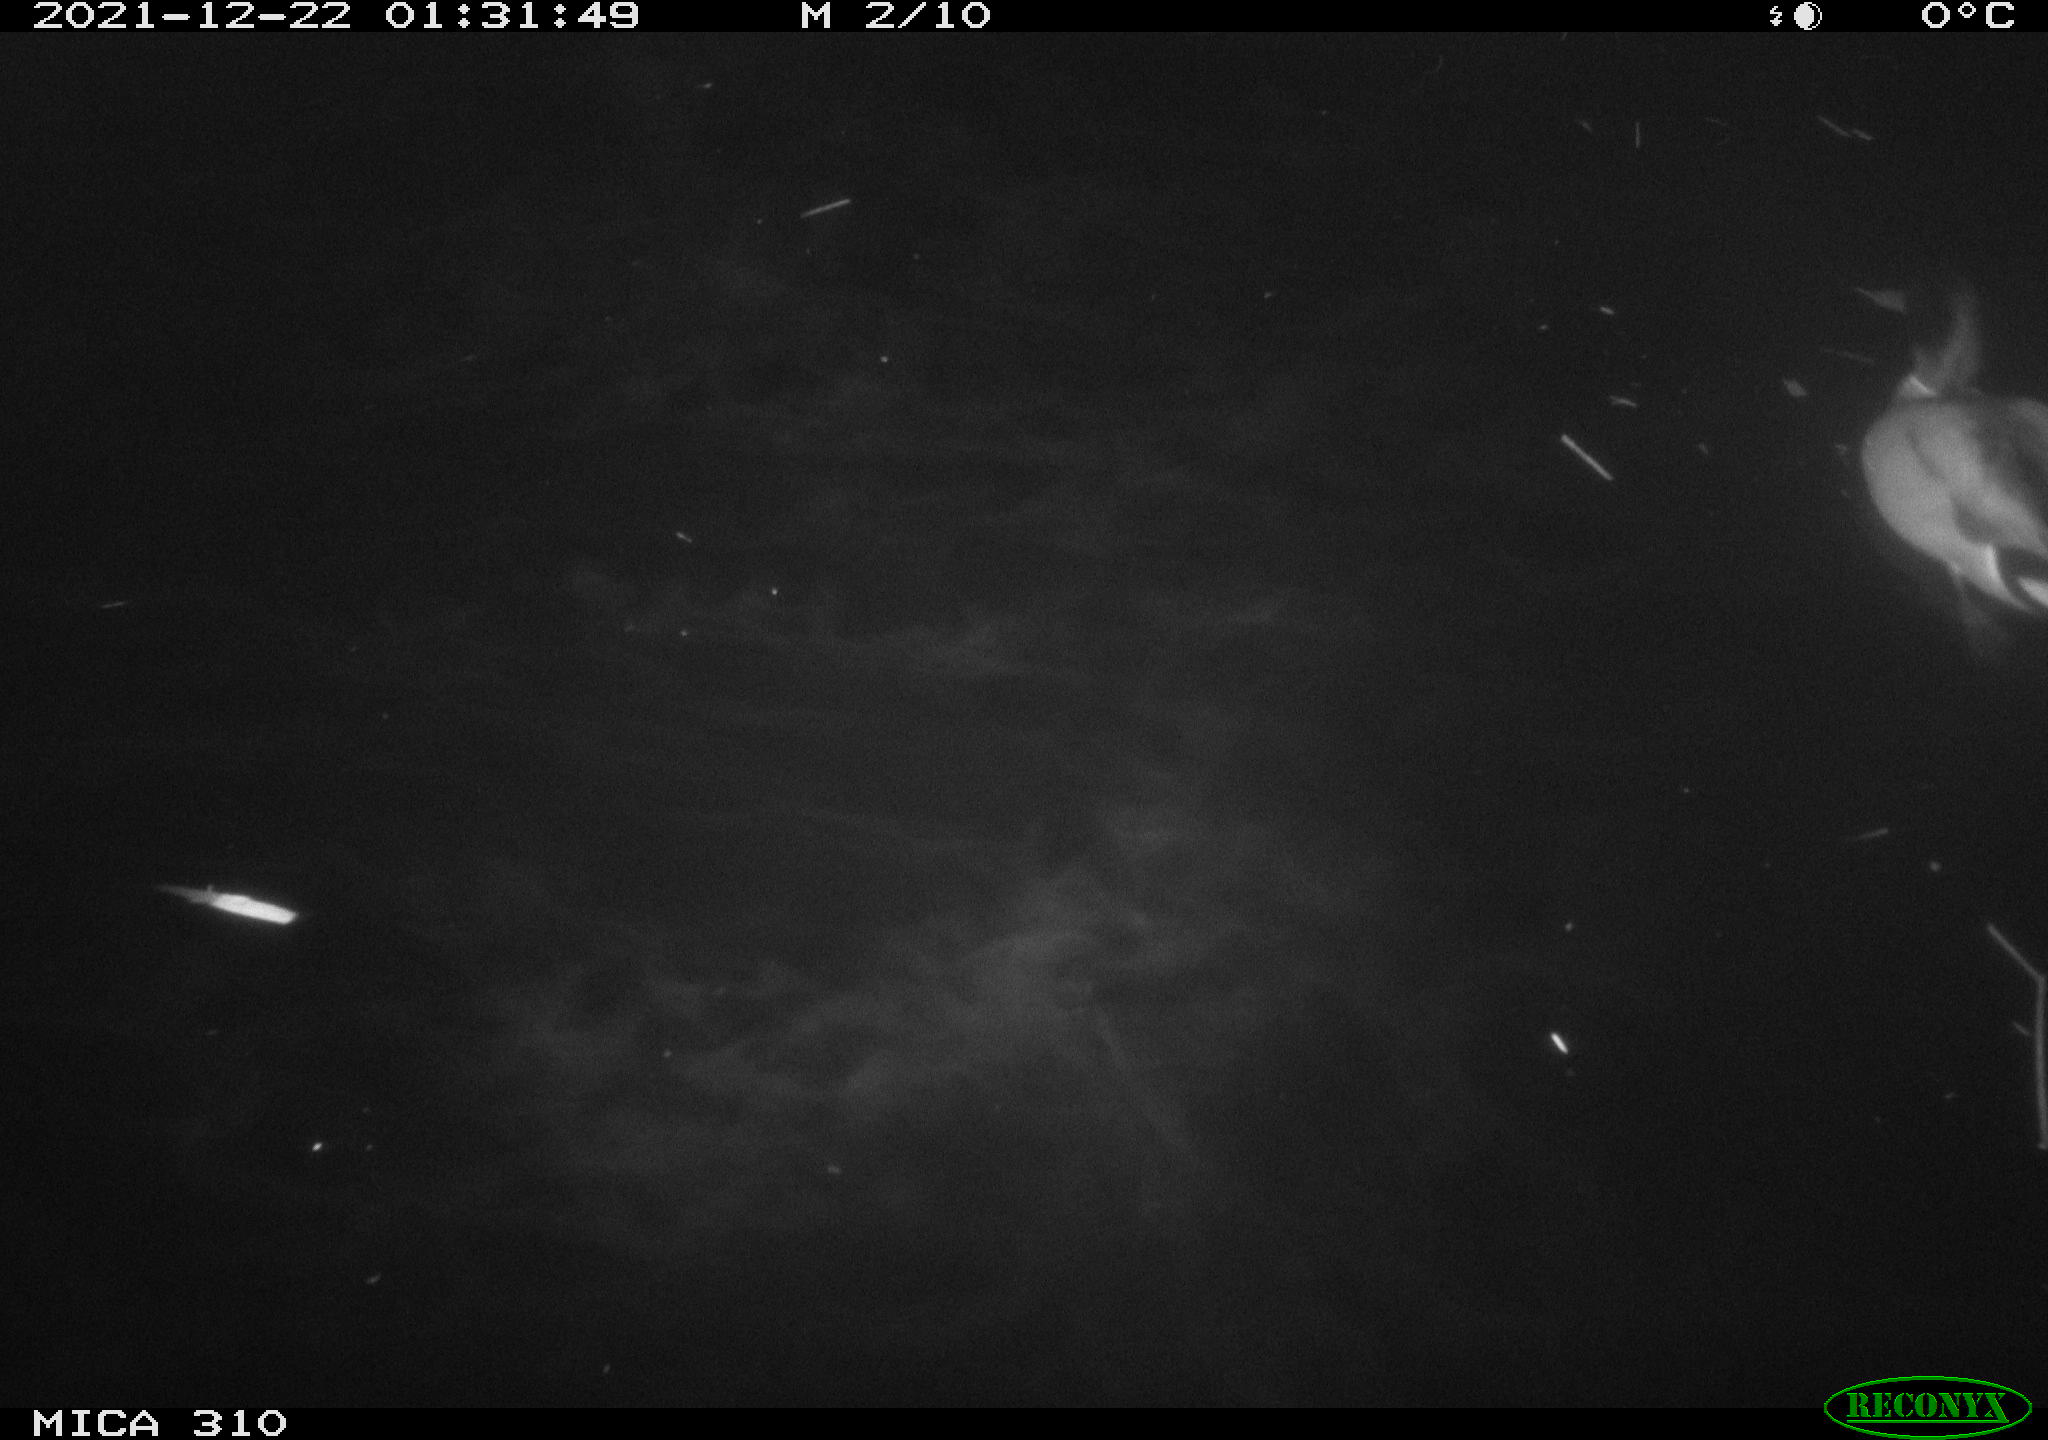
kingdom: Animalia
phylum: Chordata
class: Aves
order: Anseriformes
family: Anatidae
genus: Anas
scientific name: Anas platyrhynchos
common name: Mallard
